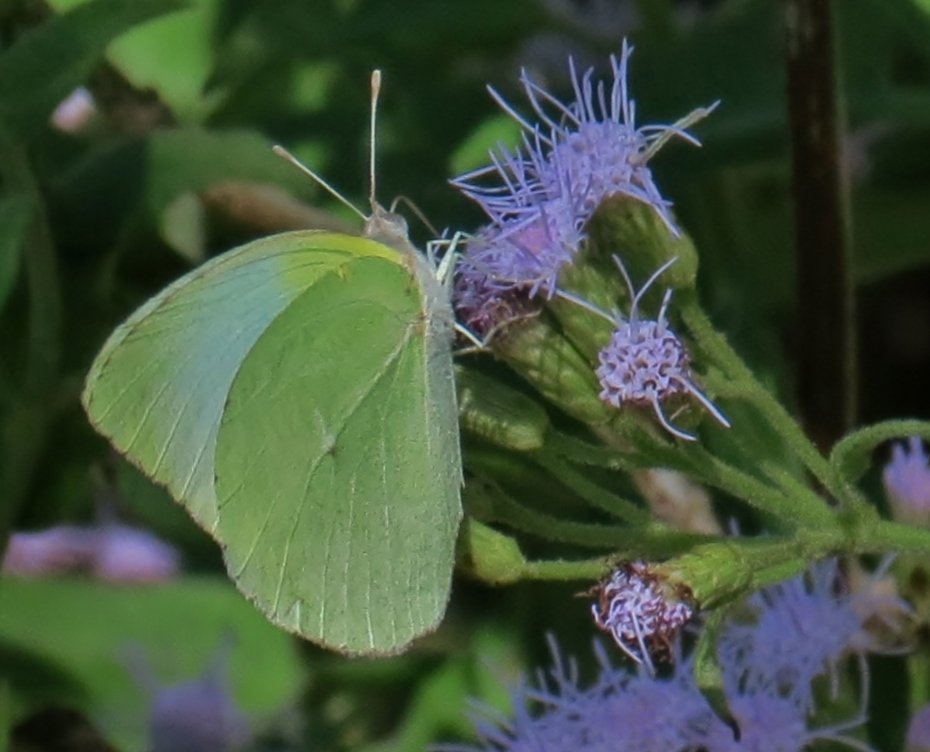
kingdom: Animalia
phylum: Arthropoda
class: Insecta
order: Lepidoptera
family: Pieridae
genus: Kricogonia
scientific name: Kricogonia lyside
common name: Lyside Sulphur
